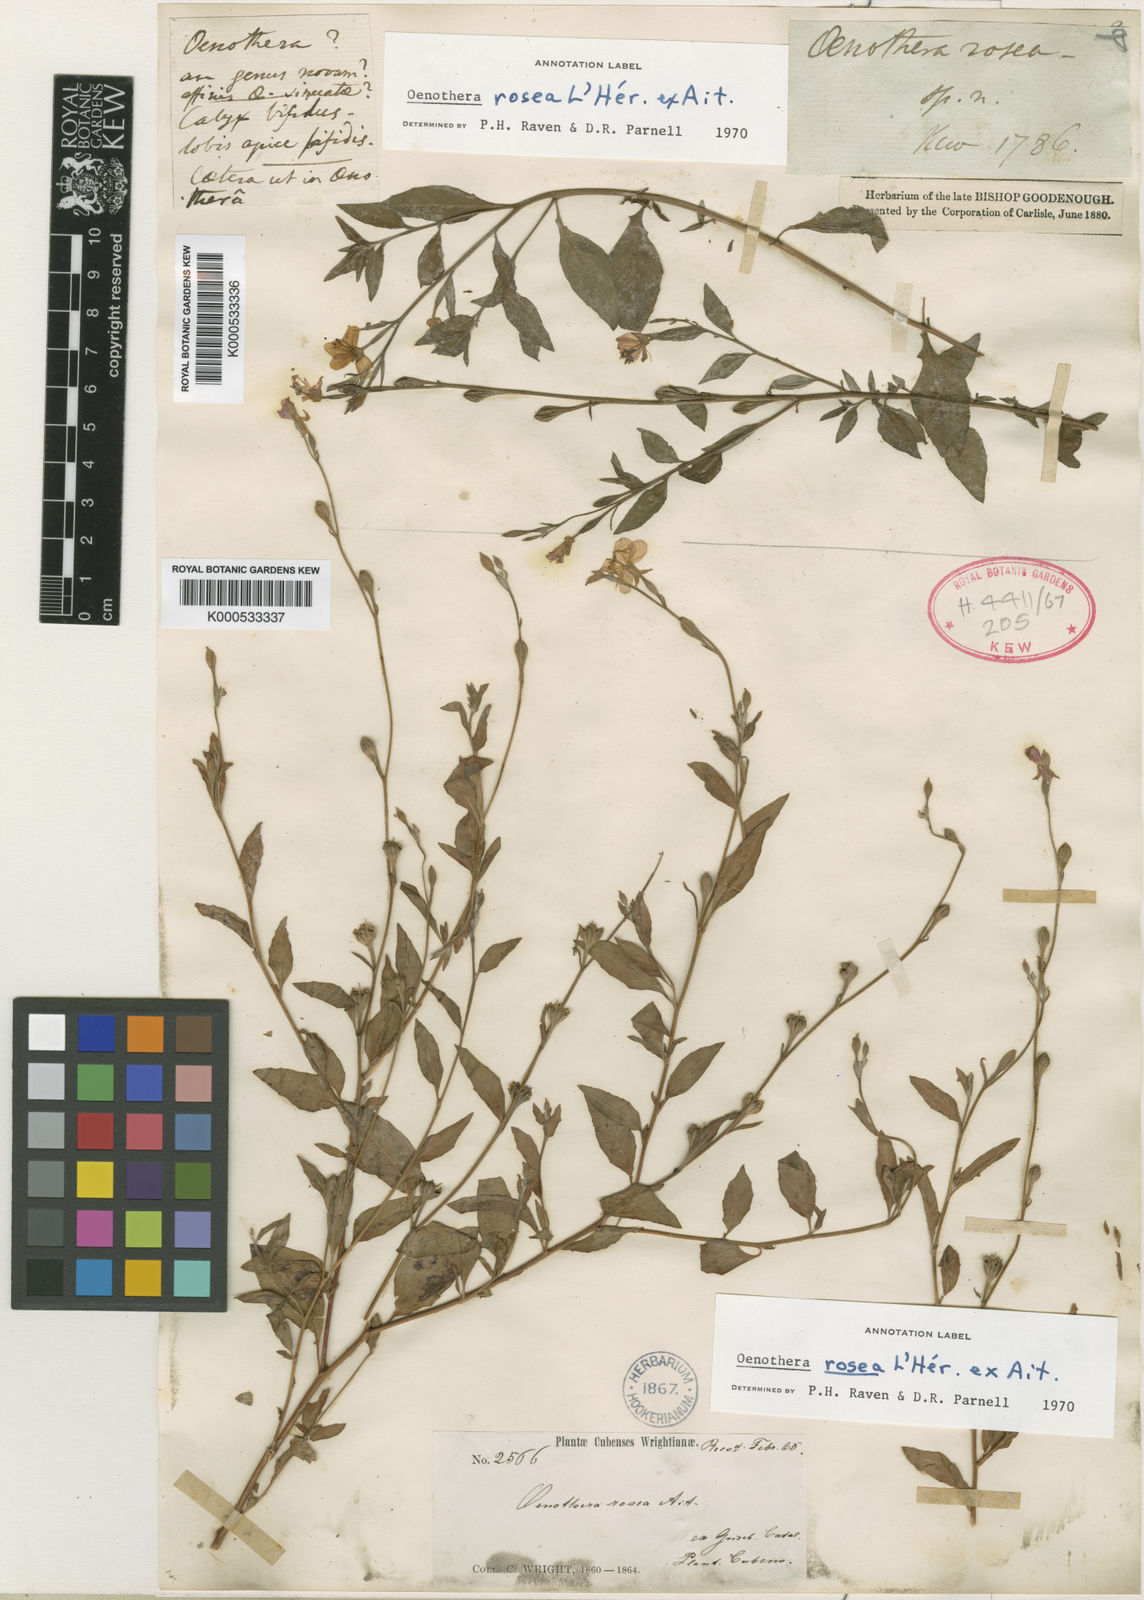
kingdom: Plantae
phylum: Tracheophyta
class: Magnoliopsida
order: Myrtales
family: Onagraceae
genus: Oenothera
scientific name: Oenothera
